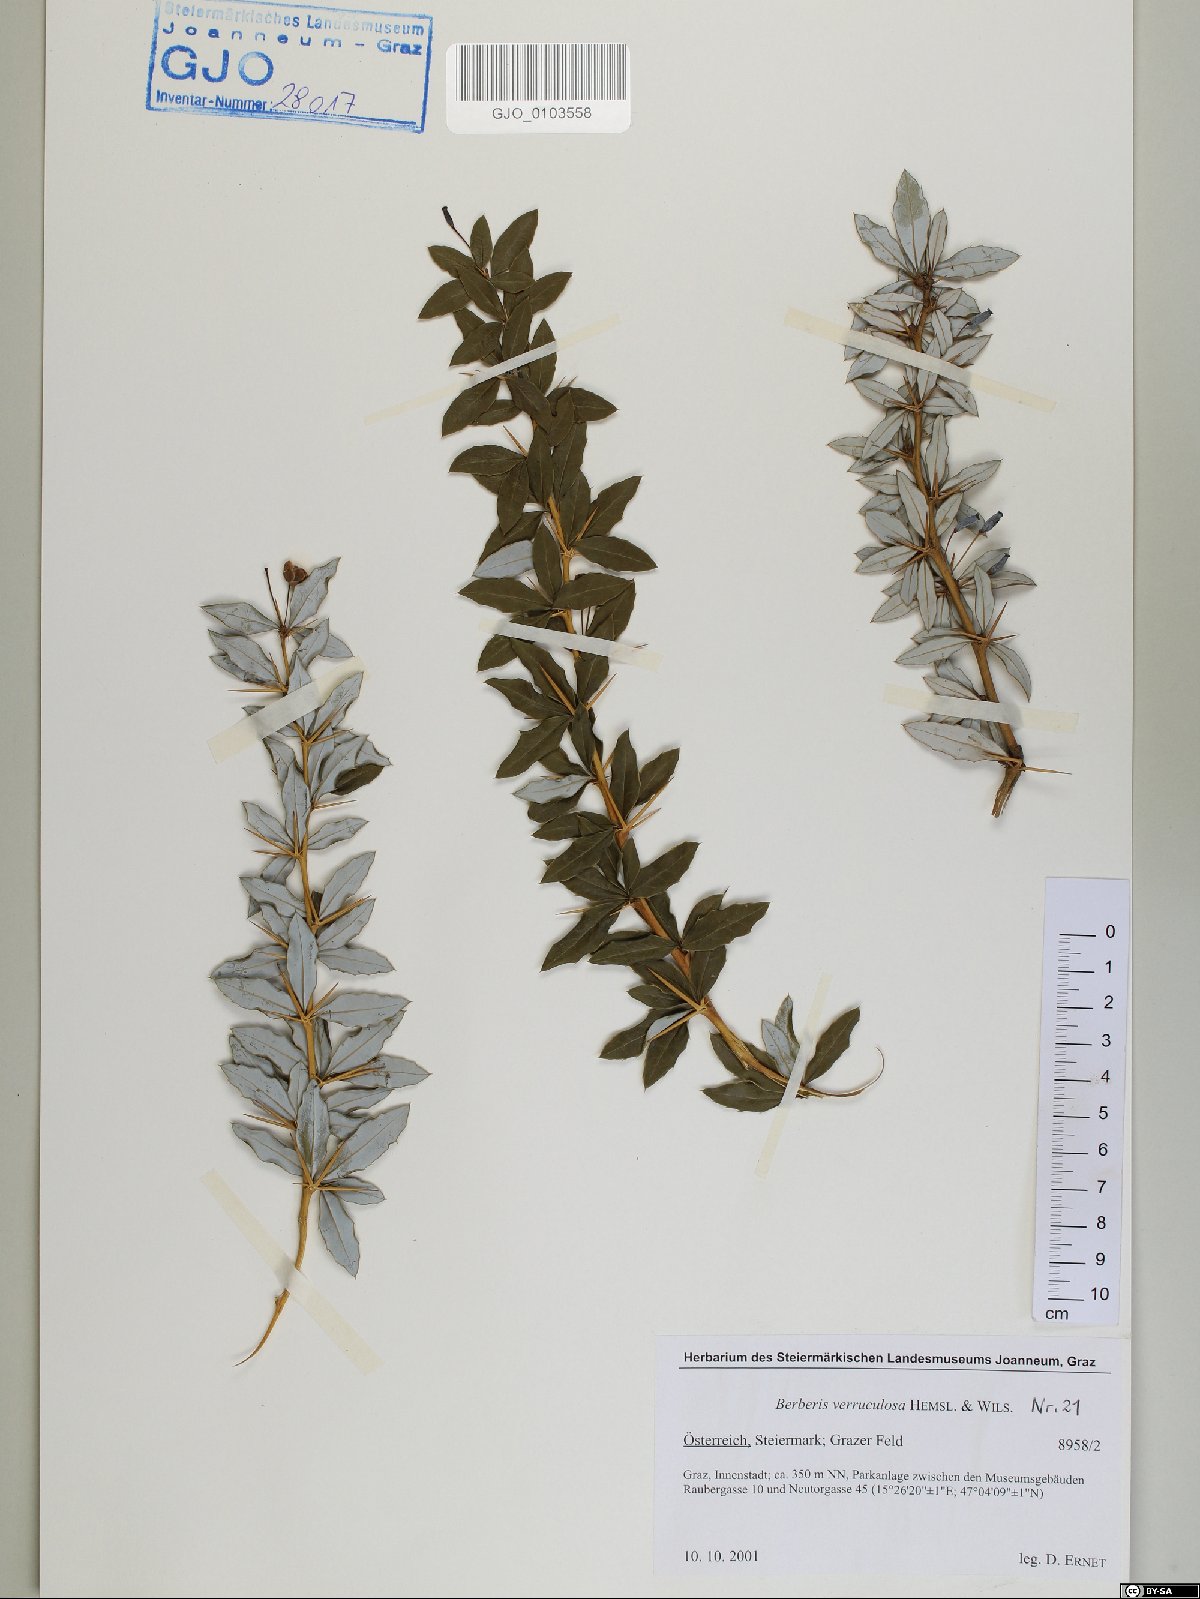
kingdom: Plantae
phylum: Tracheophyta
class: Magnoliopsida
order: Ranunculales
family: Berberidaceae
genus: Berberis
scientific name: Berberis verruculosa
